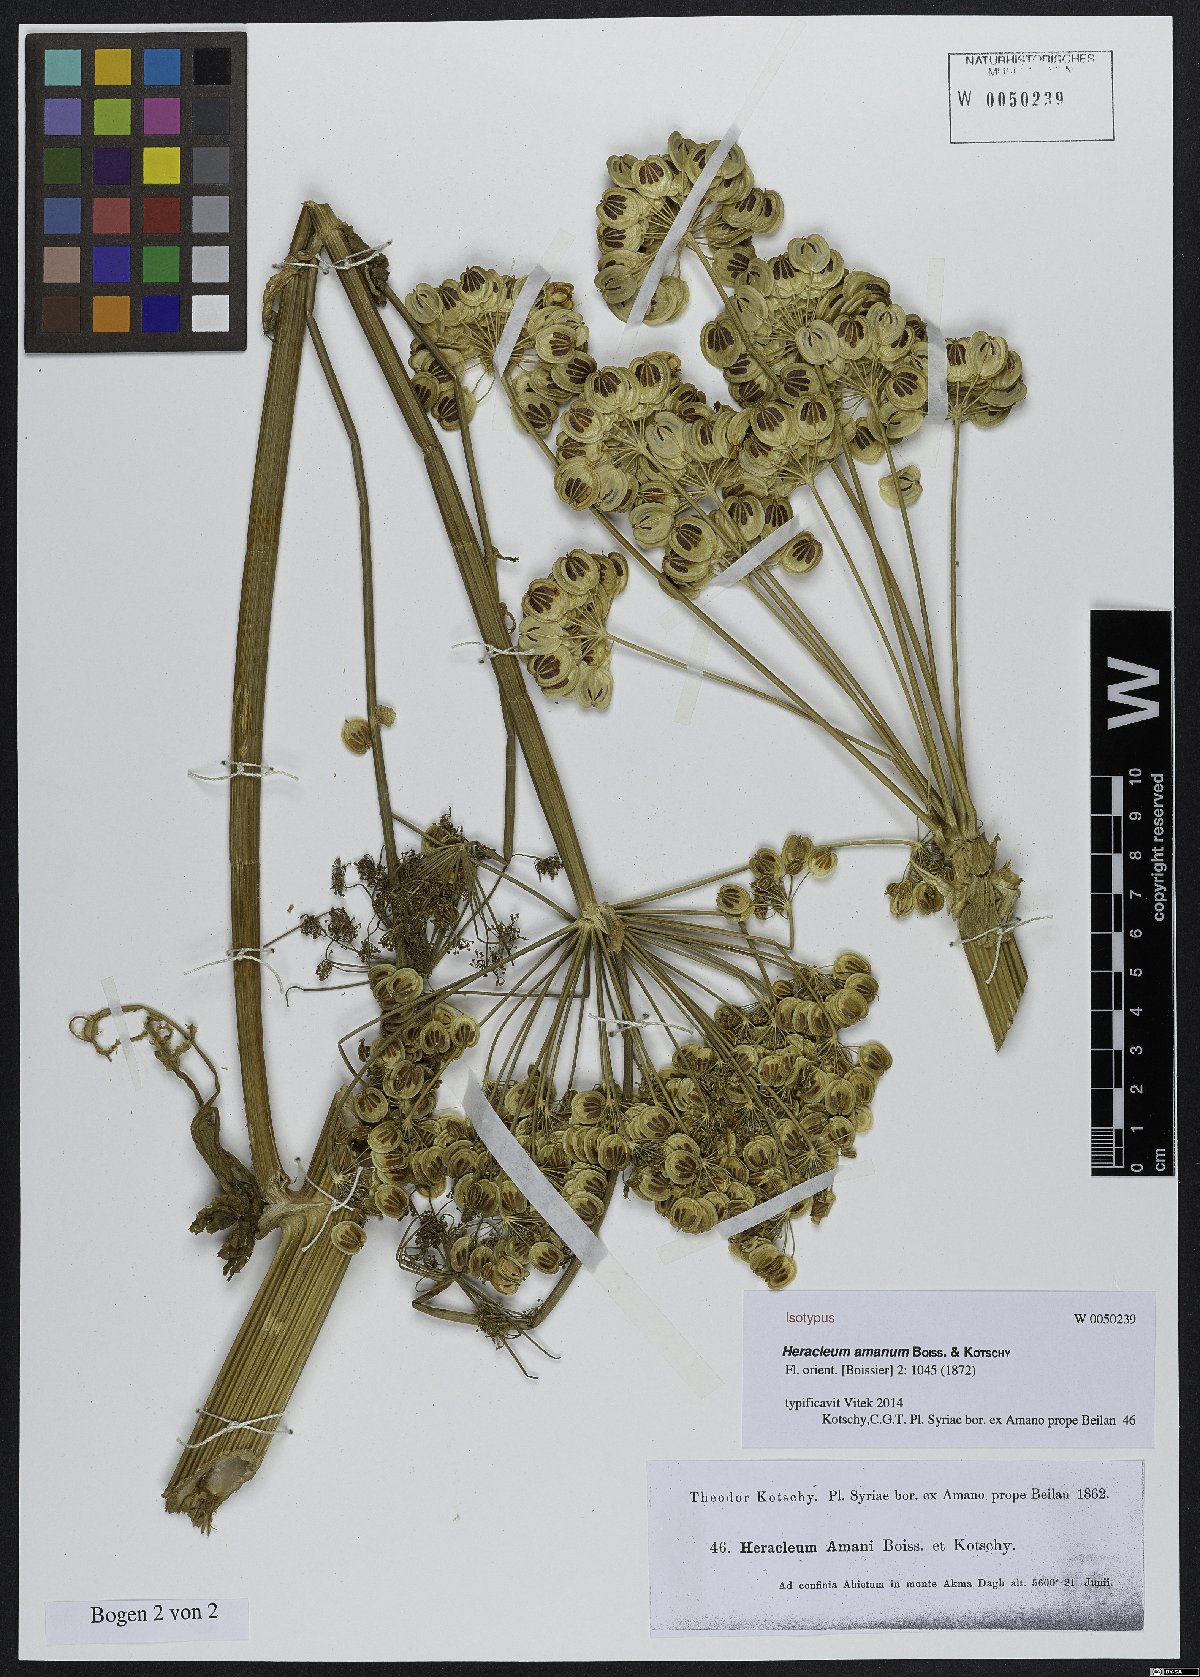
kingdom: Plantae
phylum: Tracheophyta
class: Magnoliopsida
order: Apiales
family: Apiaceae
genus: Heracleum
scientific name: Heracleum amanum
